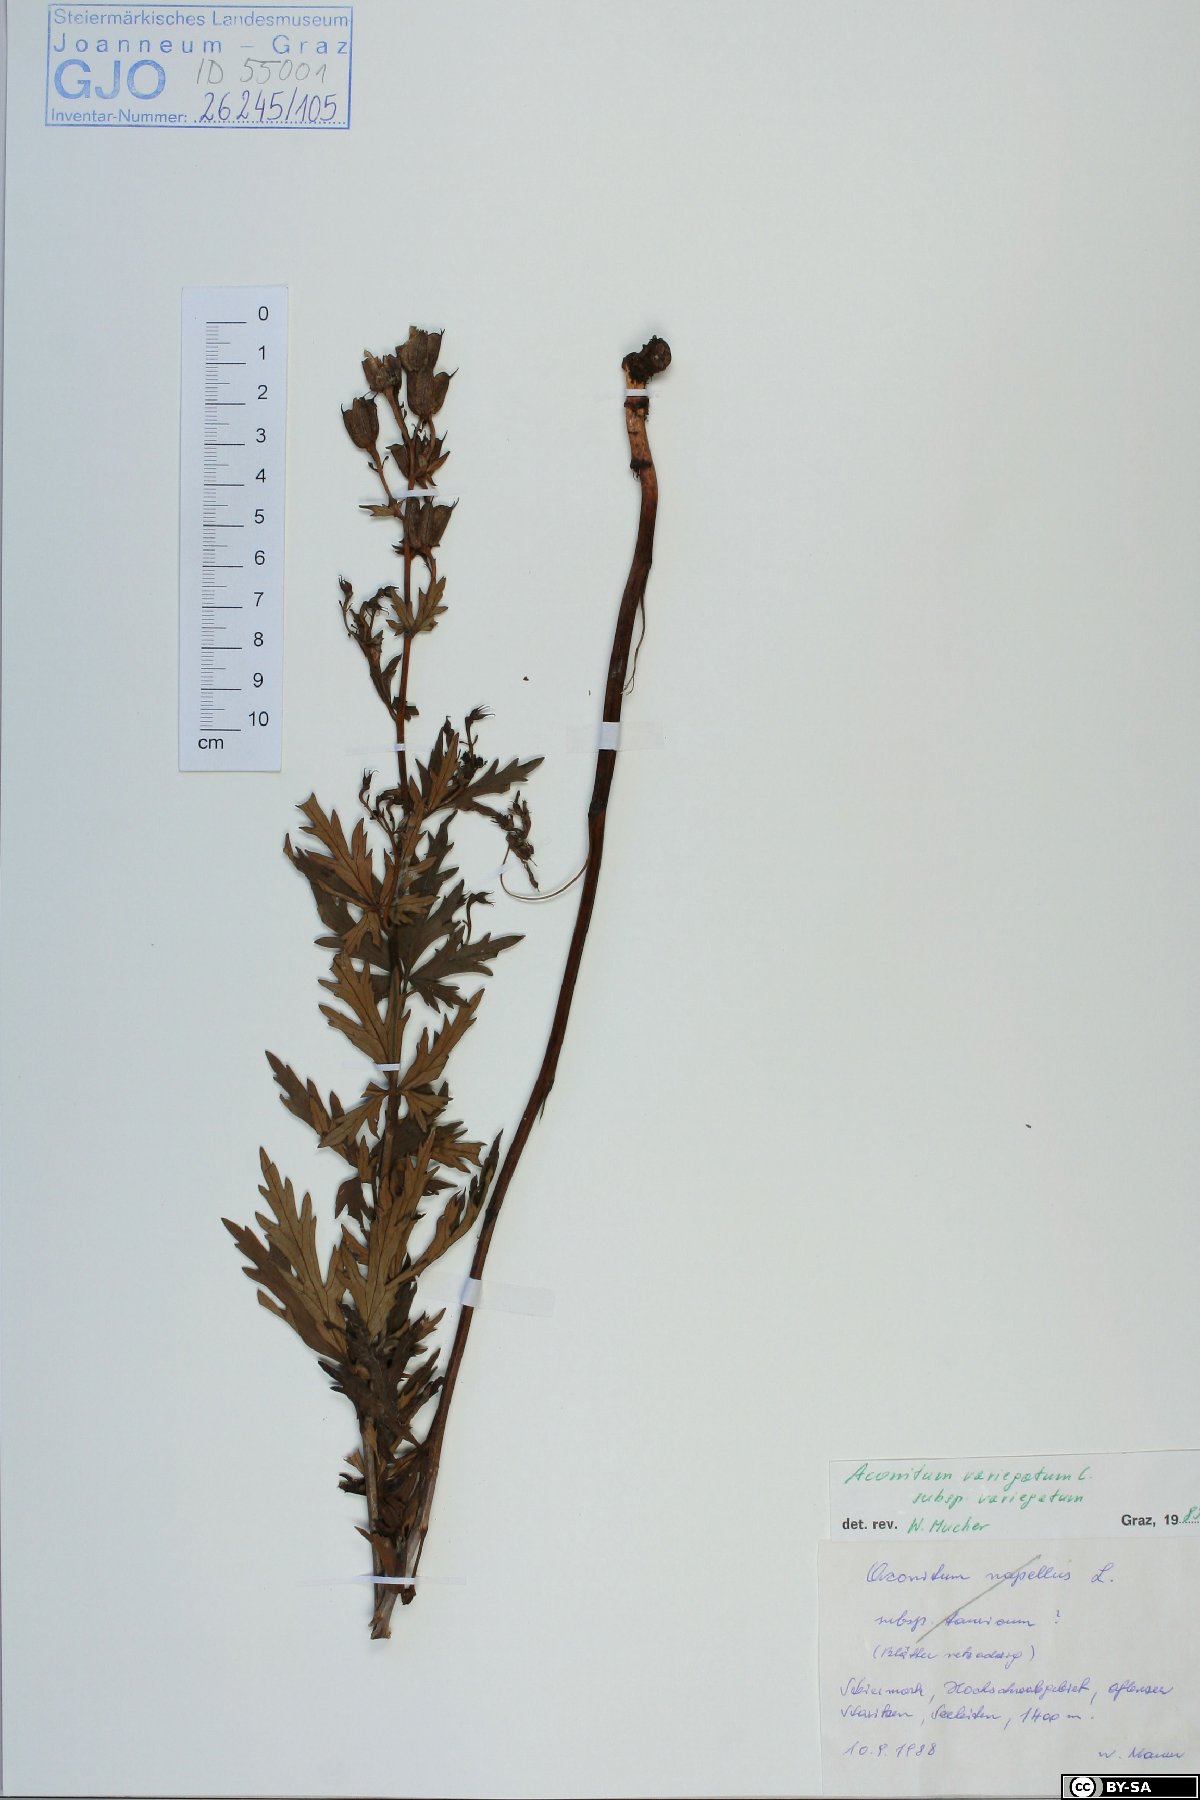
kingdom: Plantae
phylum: Tracheophyta
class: Magnoliopsida
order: Ranunculales
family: Ranunculaceae
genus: Aconitum
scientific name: Aconitum variegatum
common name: Manchurian monkshood
